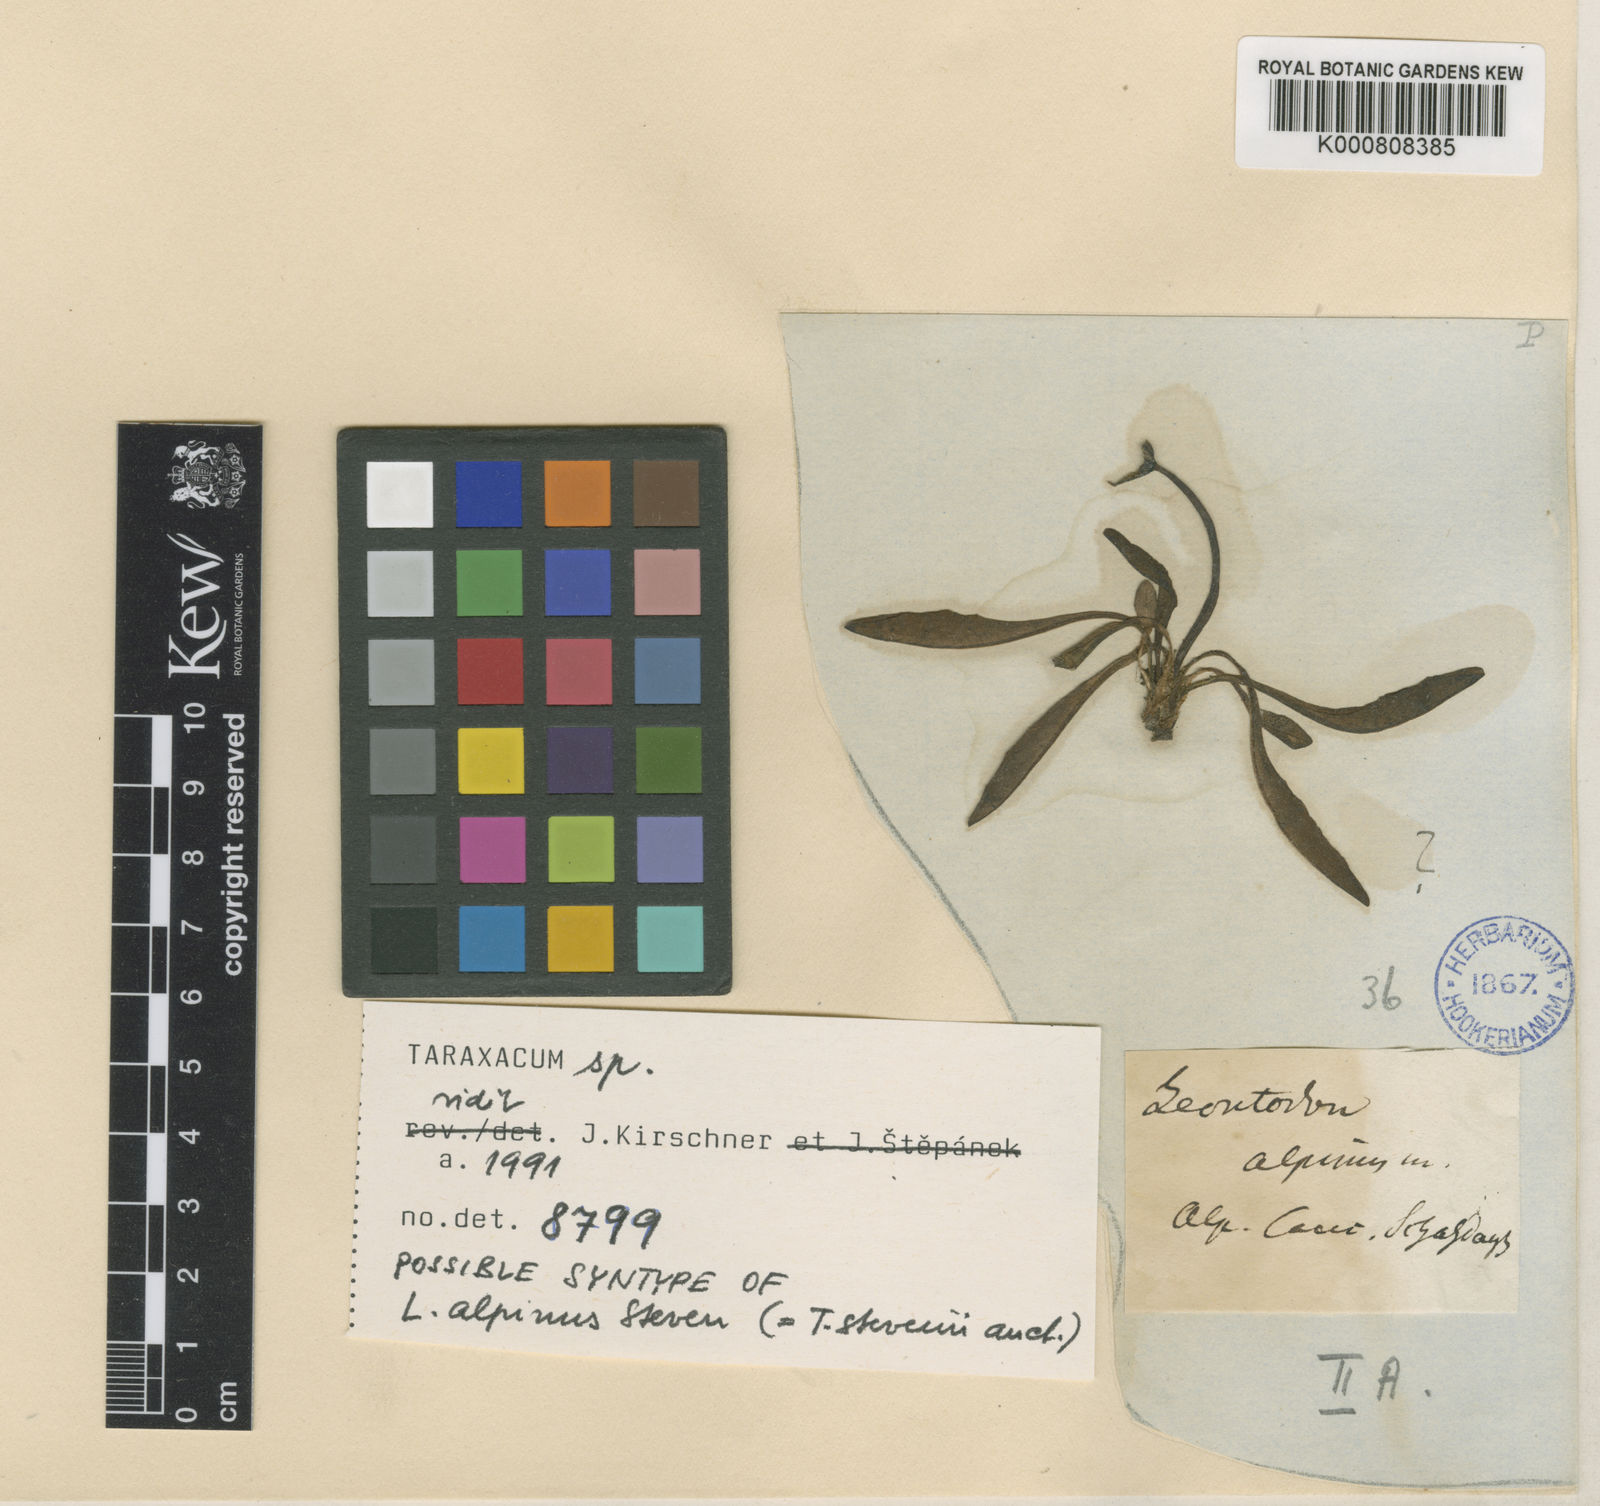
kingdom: Plantae
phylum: Tracheophyta
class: Magnoliopsida
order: Asterales
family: Asteraceae
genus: Taraxacum
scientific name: Taraxacum stevenii
